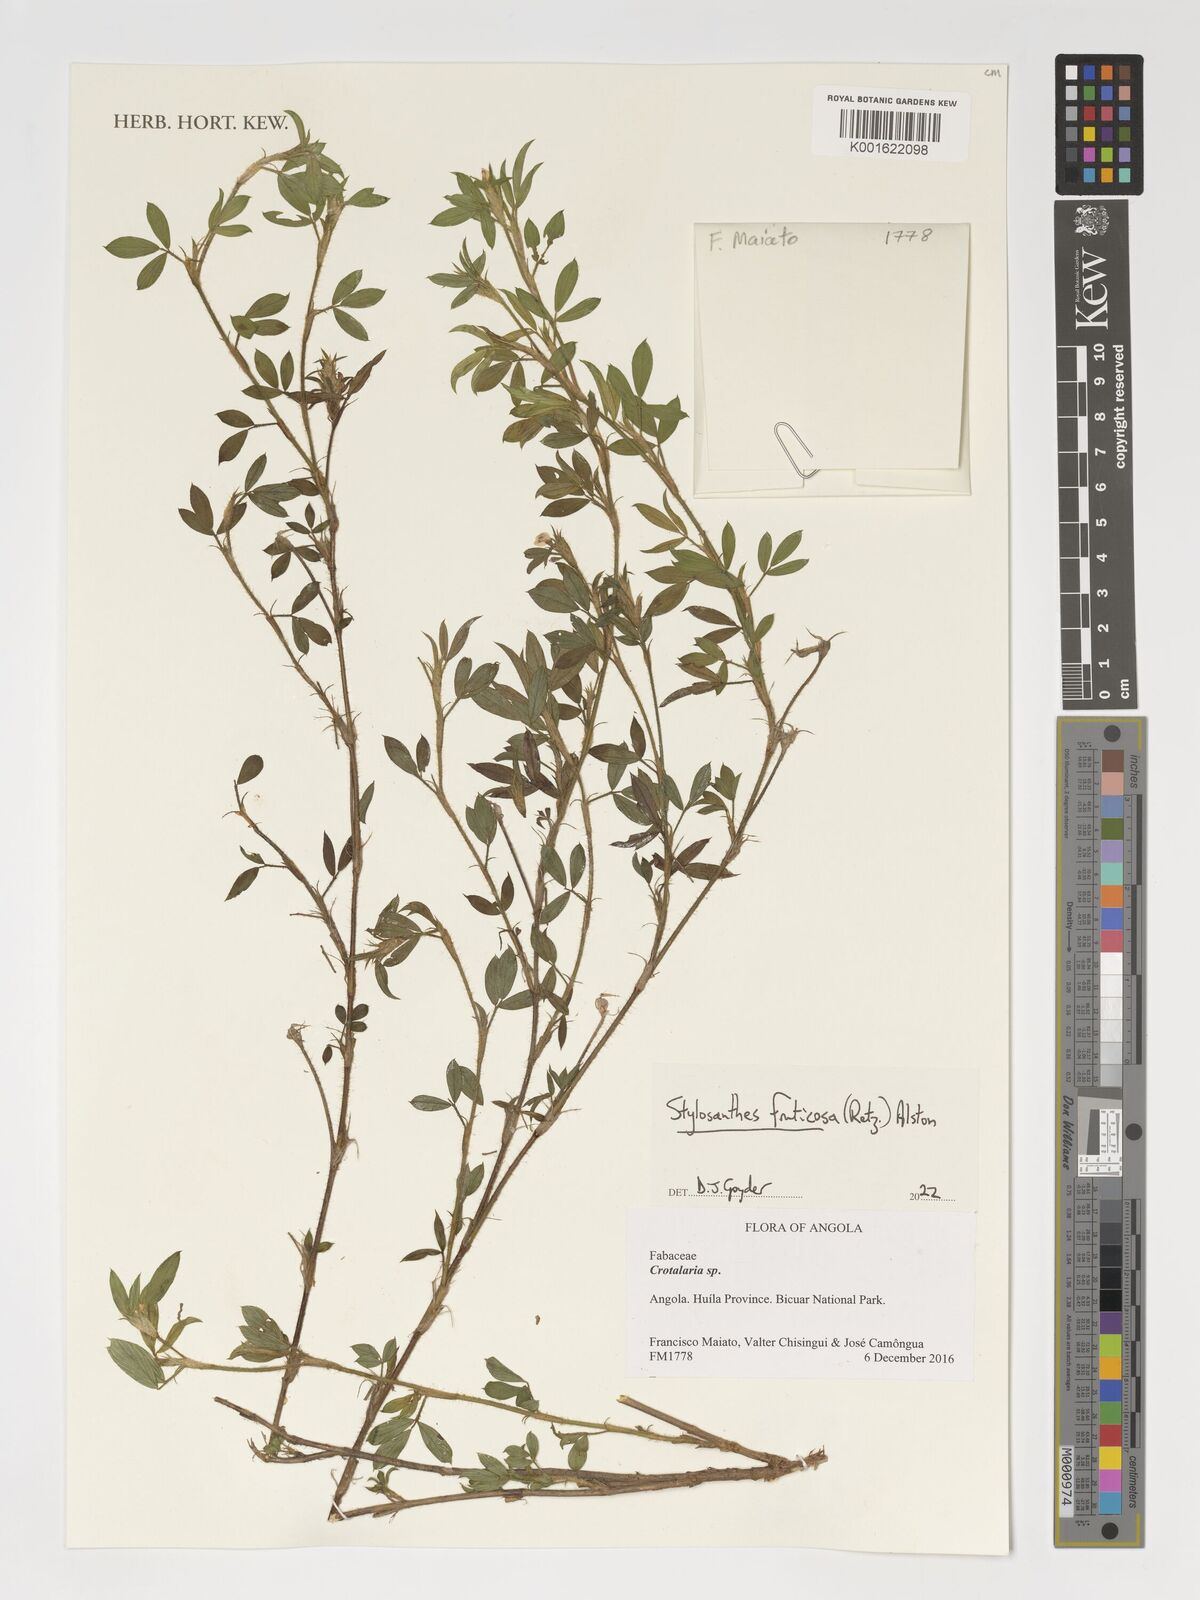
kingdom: Plantae
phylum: Tracheophyta
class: Magnoliopsida
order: Fabales
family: Fabaceae
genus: Stylosanthes
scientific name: Stylosanthes fruticosa
